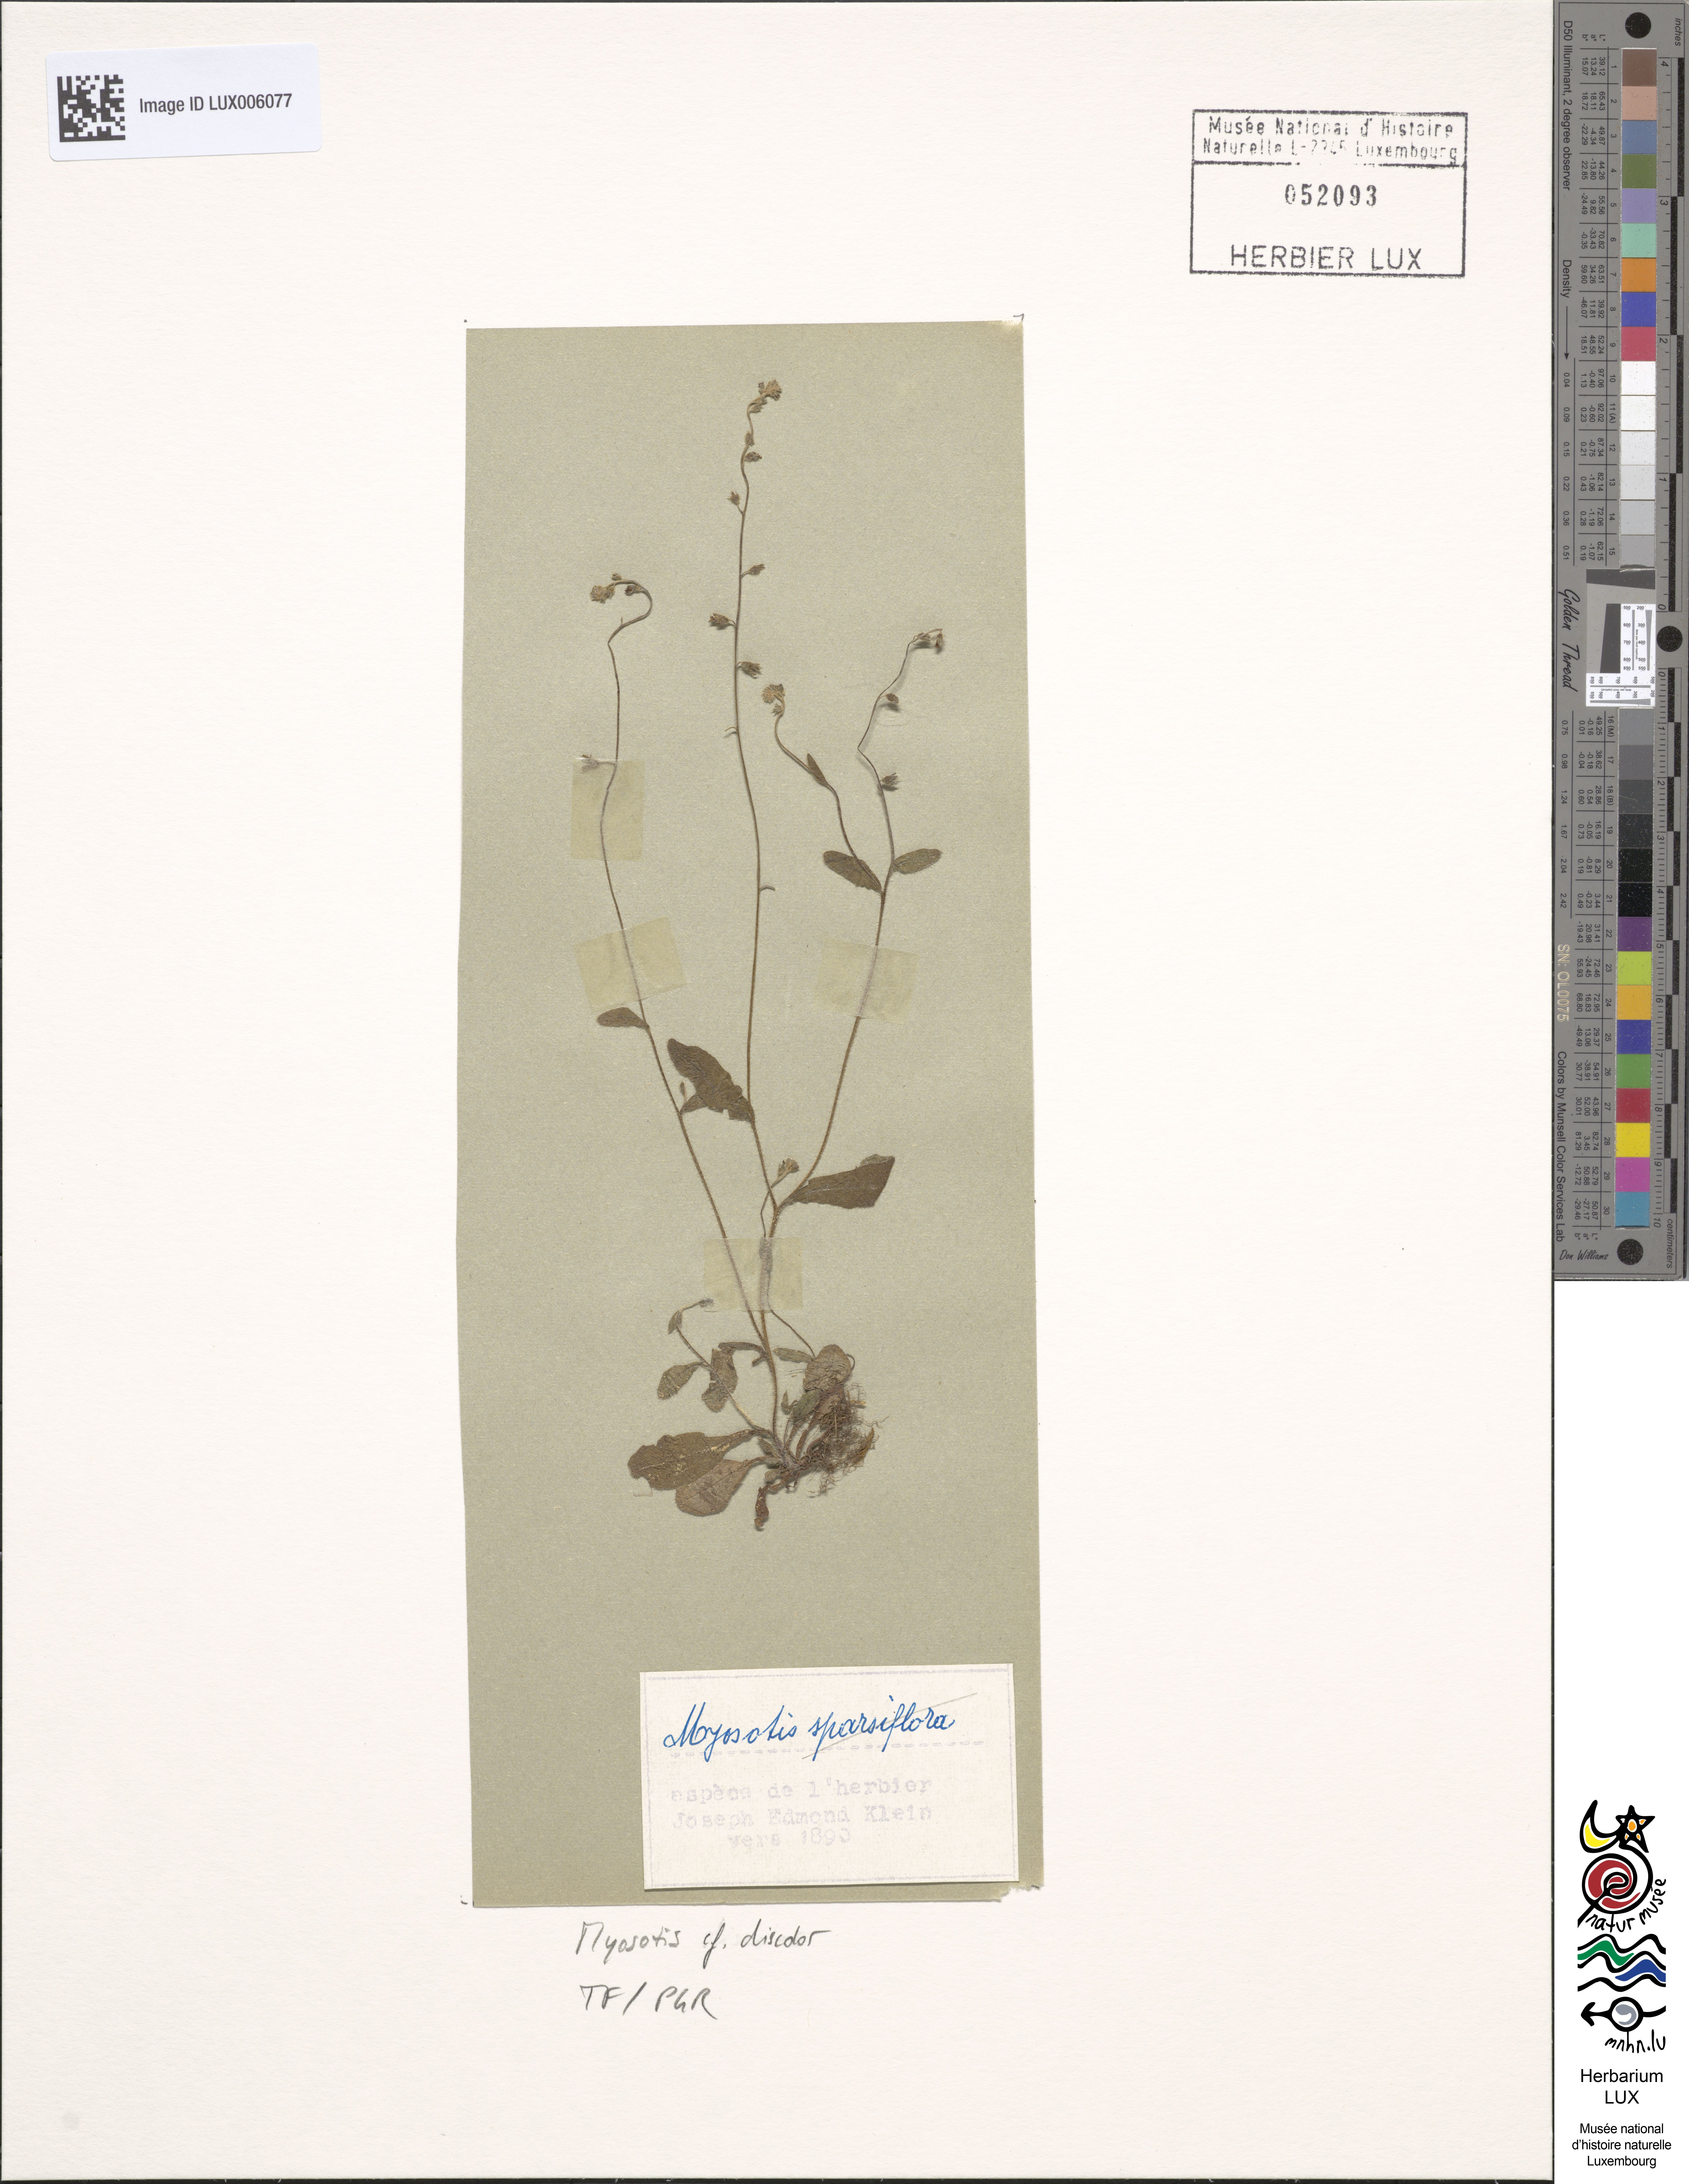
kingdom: Plantae
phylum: Tracheophyta
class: Magnoliopsida
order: Boraginales
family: Boraginaceae
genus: Myosotis
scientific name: Myosotis discolor
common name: Changing forget-me-not
